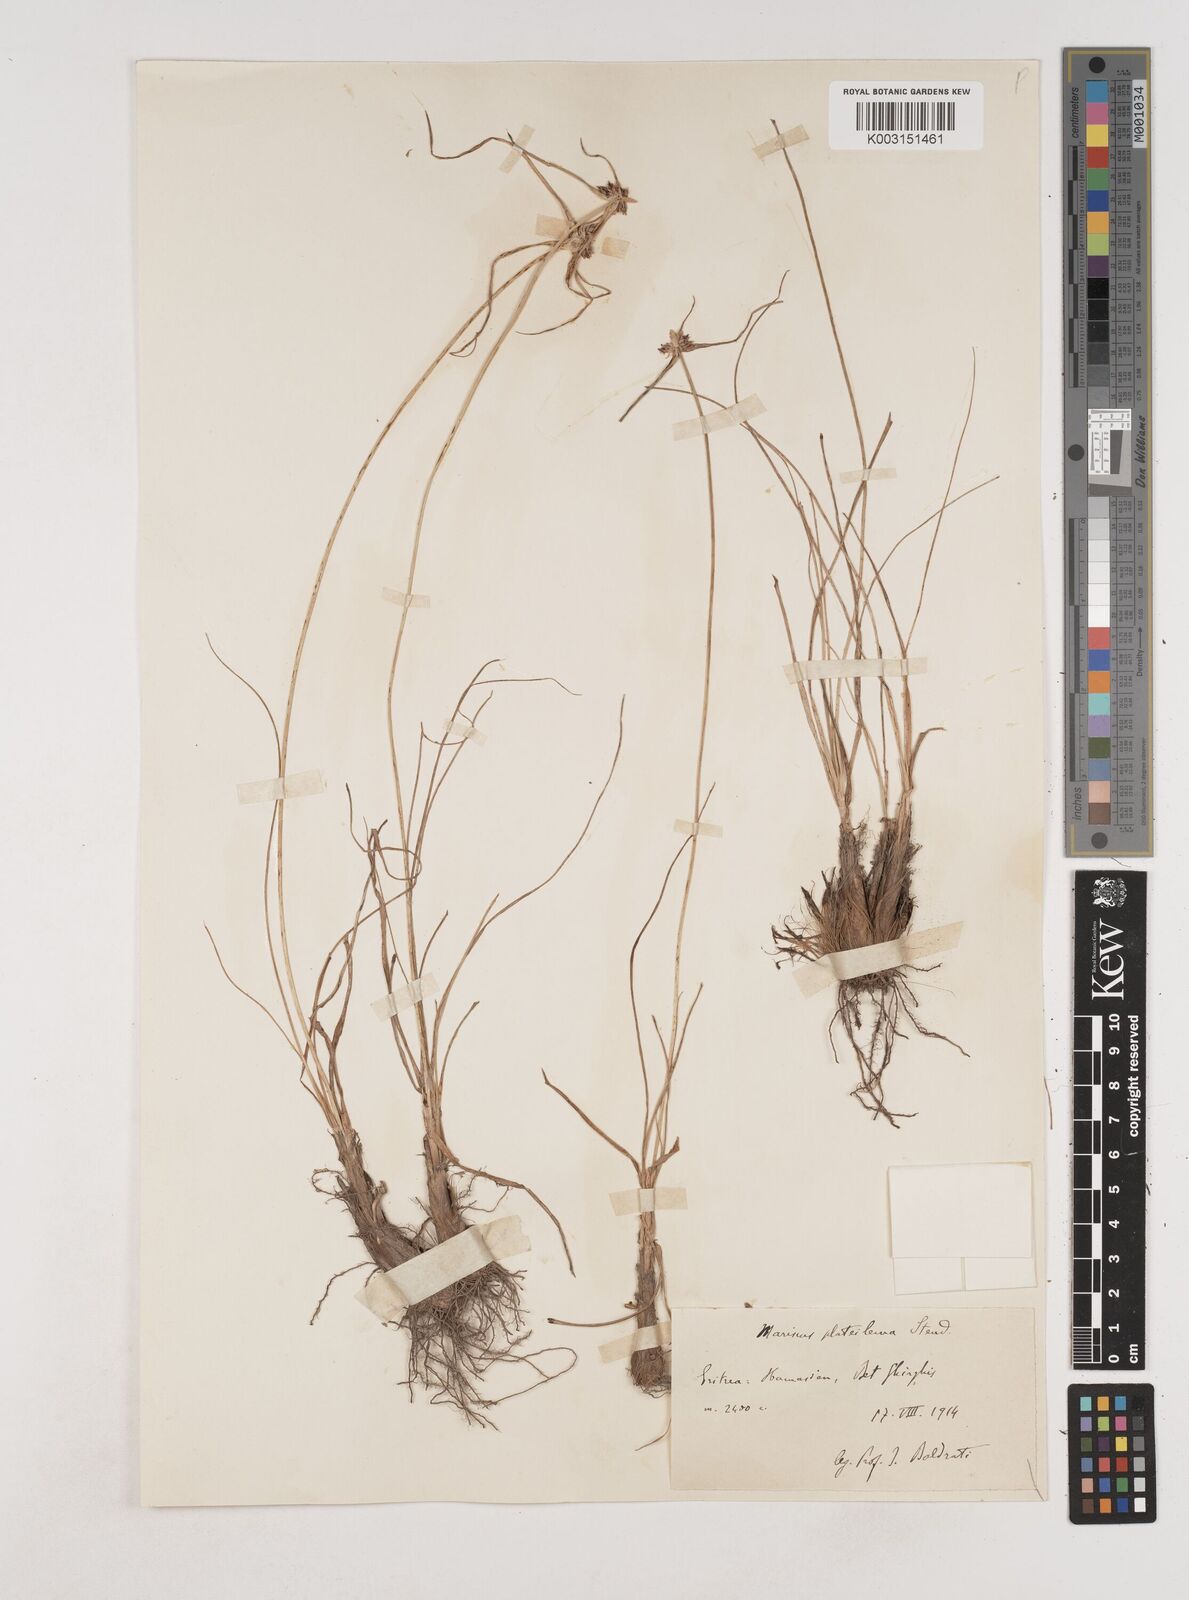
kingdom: Plantae
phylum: Tracheophyta
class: Liliopsida
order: Poales
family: Cyperaceae
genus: Cyperus
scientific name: Cyperus plateilema
